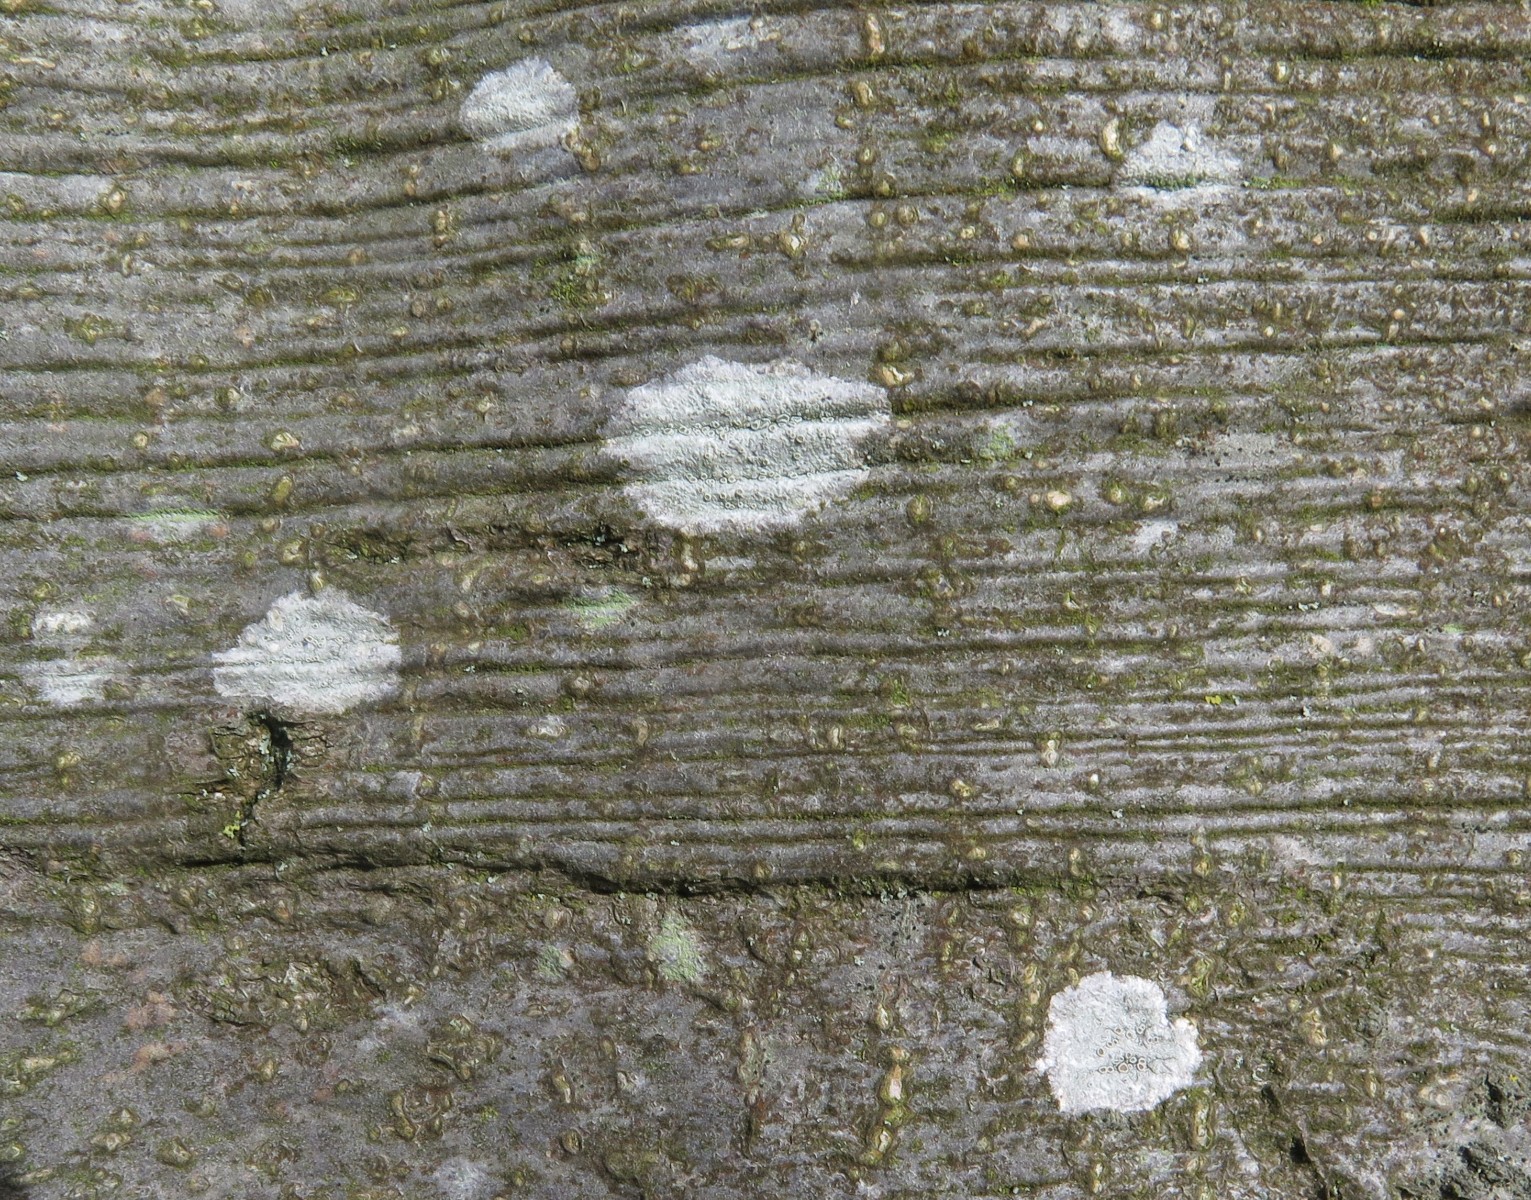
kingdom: Fungi
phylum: Ascomycota
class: Lecanoromycetes
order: Ostropales
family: Phlyctidaceae
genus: Phlyctis
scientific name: Phlyctis argena
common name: almindelig sølvlav
